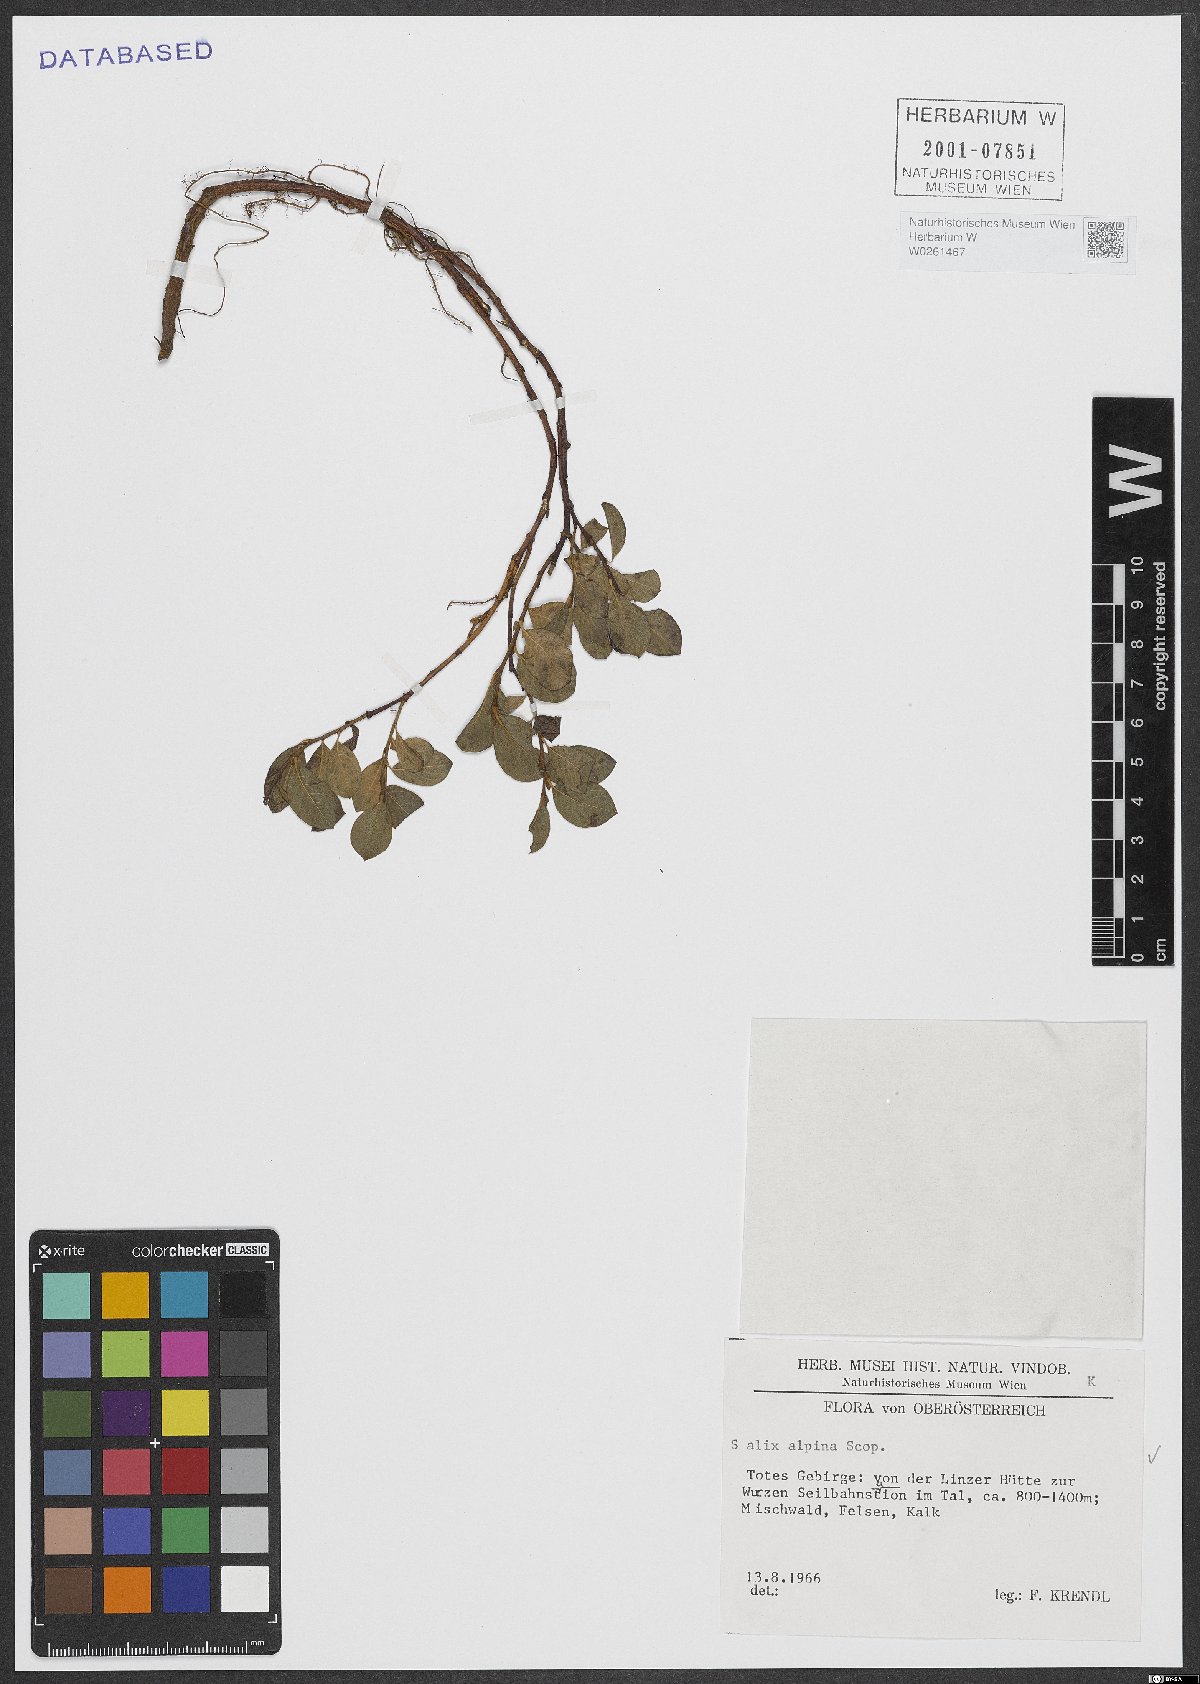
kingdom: Plantae
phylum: Tracheophyta
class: Magnoliopsida
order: Malpighiales
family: Salicaceae
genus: Salix
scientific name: Salix alpina
